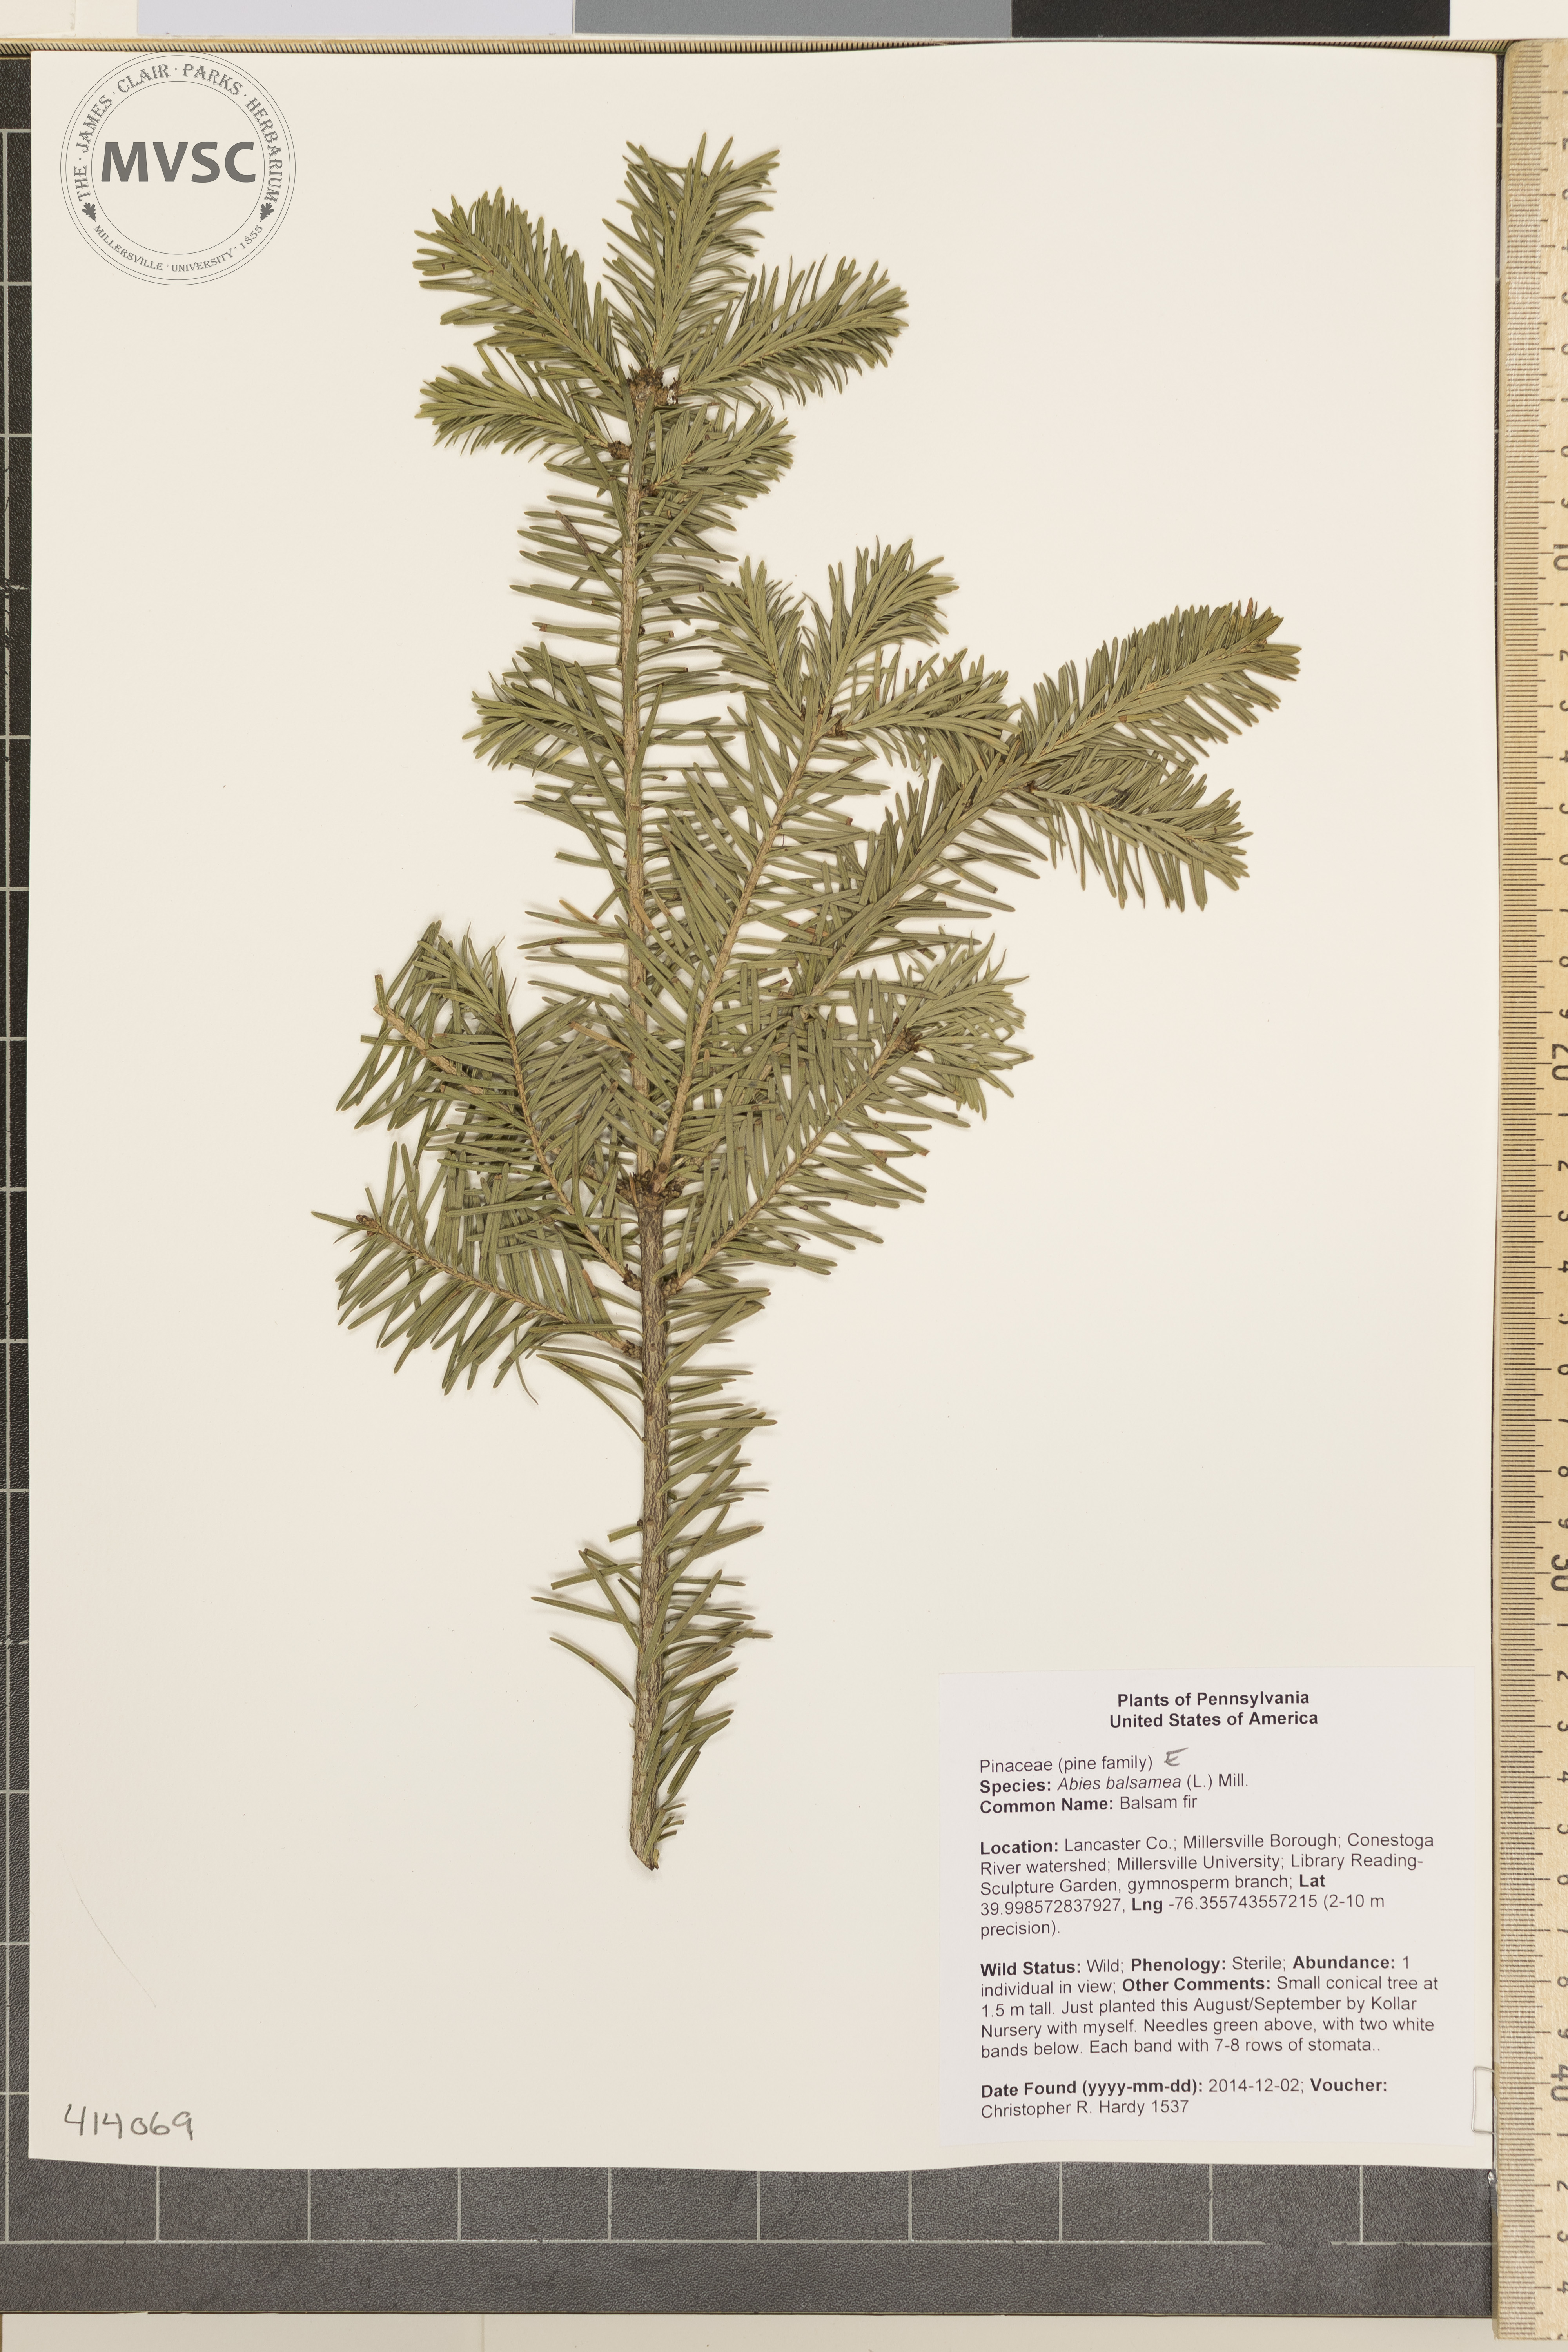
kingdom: Plantae
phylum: Tracheophyta
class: Pinopsida
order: Pinales
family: Pinaceae
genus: Abies
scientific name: Abies balsamea
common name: Balsam fir
